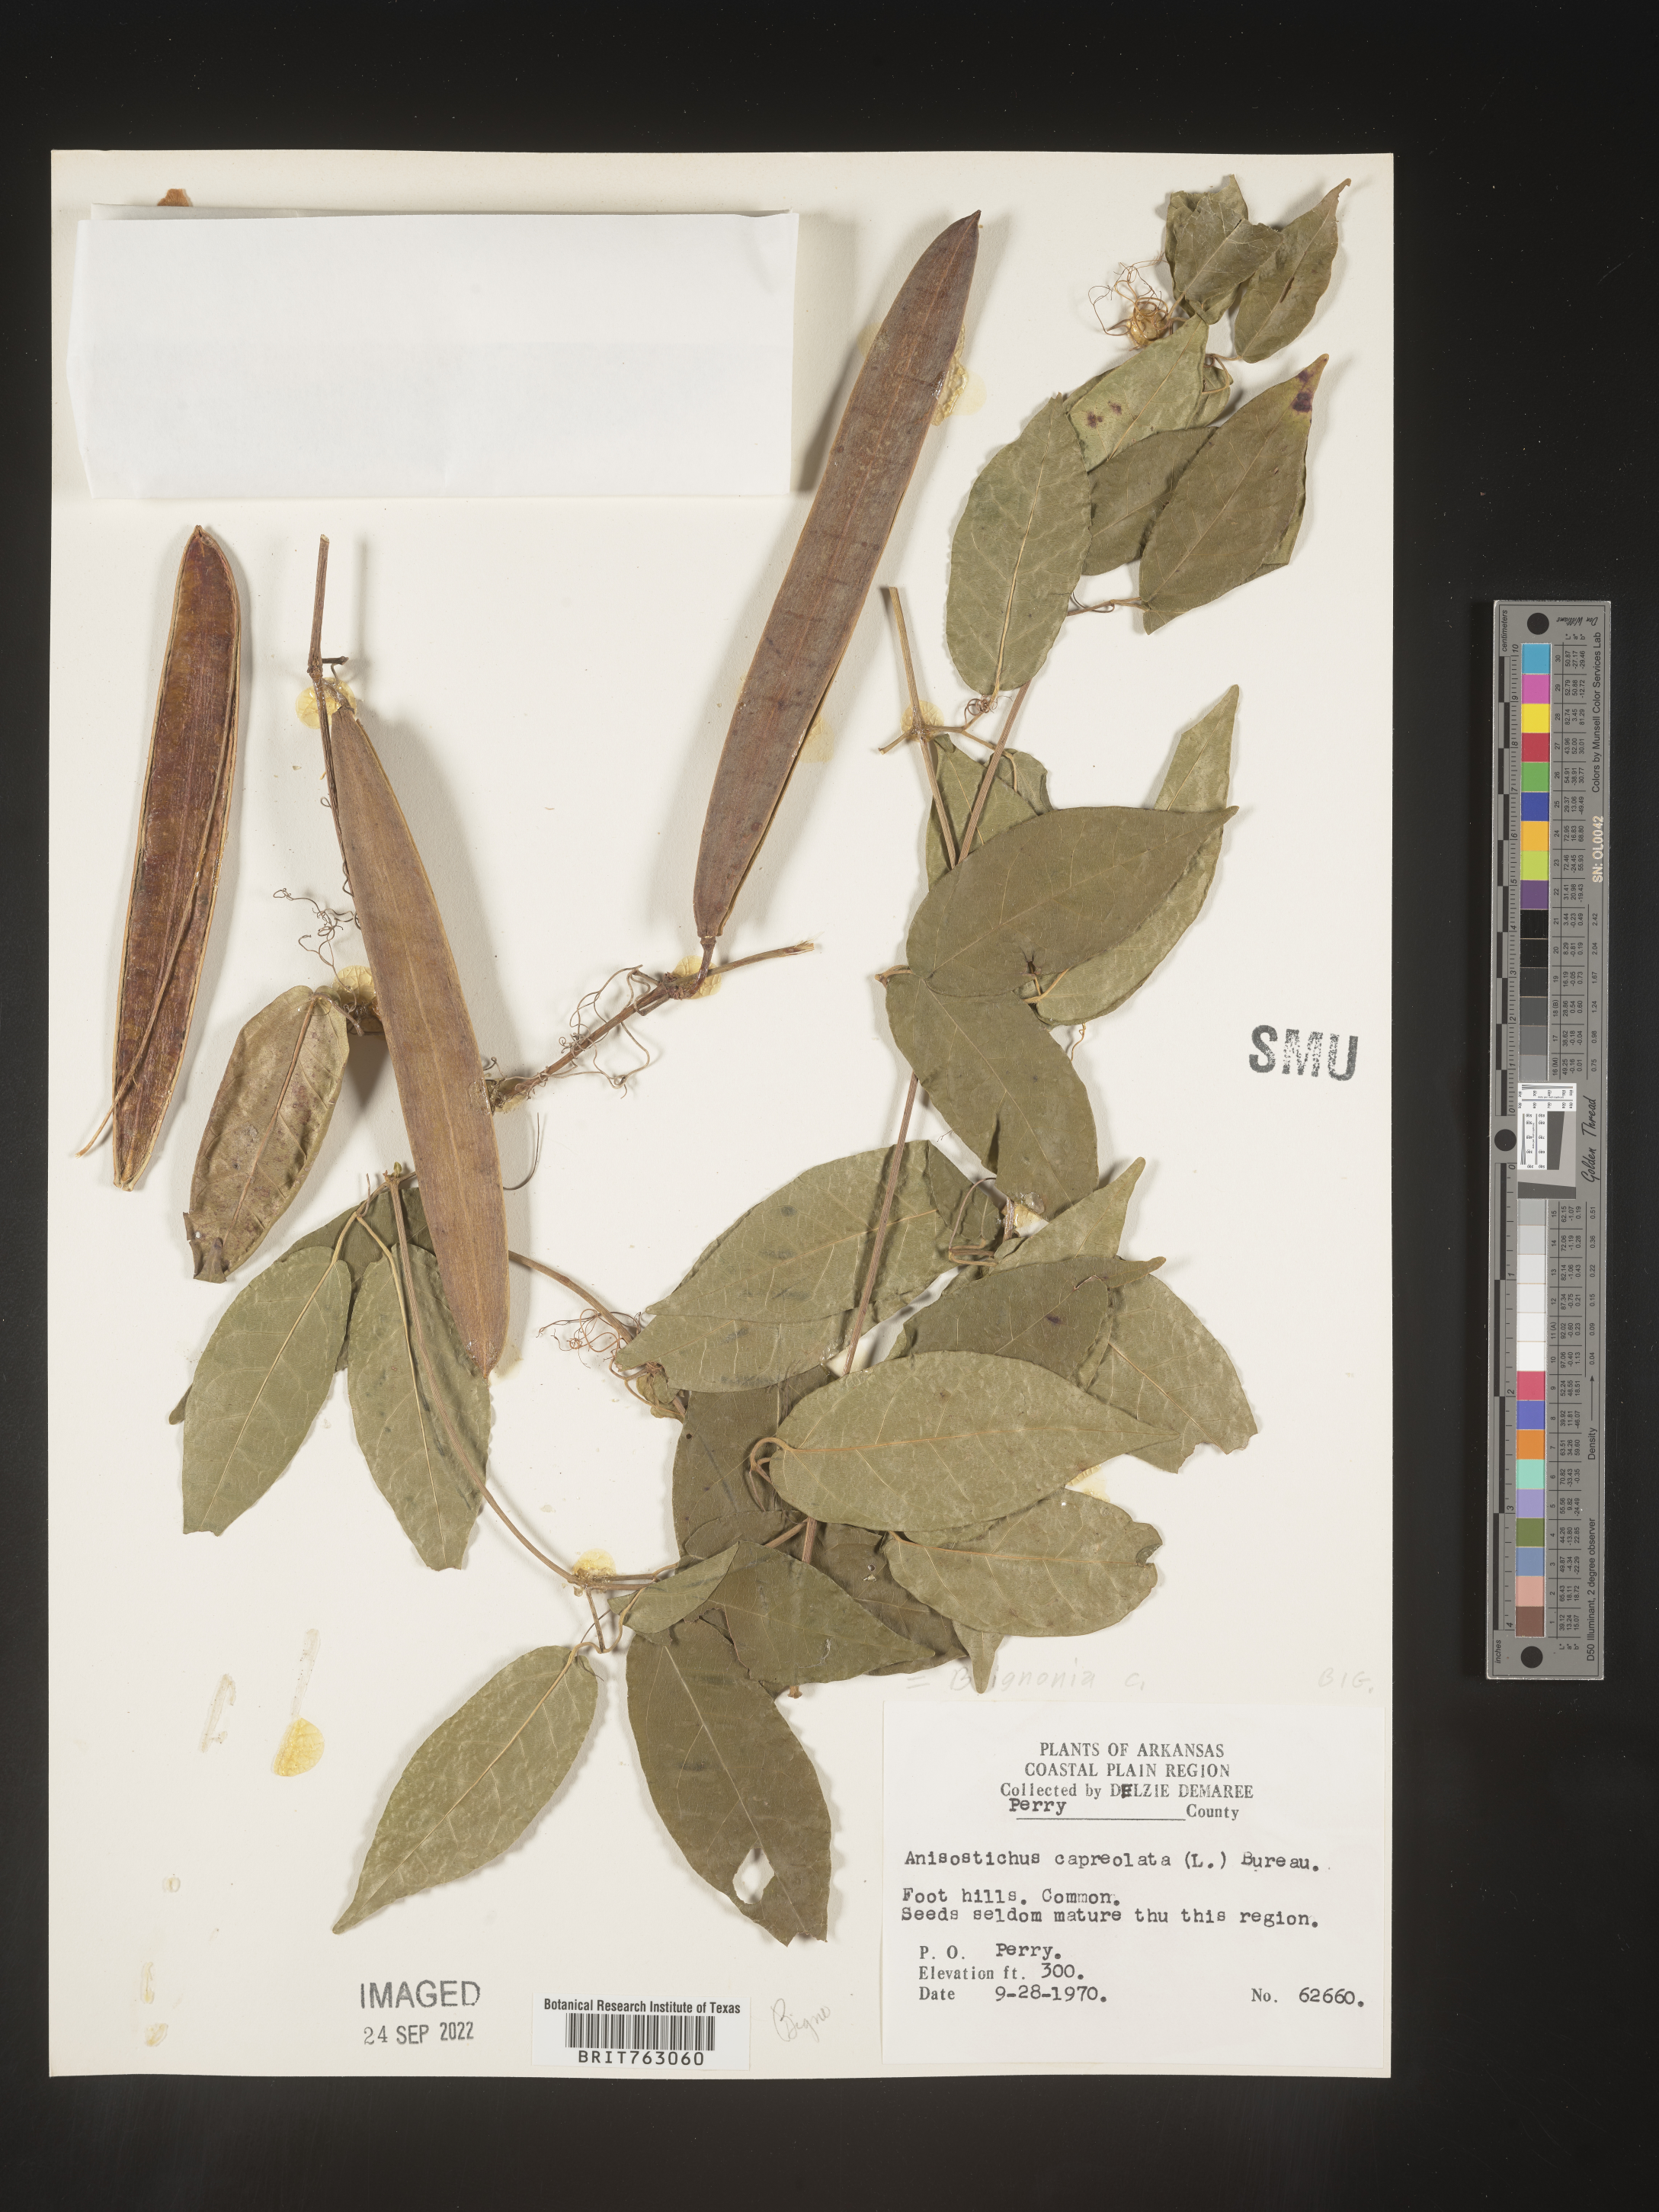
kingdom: Plantae
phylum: Tracheophyta
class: Magnoliopsida
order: Lamiales
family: Bignoniaceae
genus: Bignonia
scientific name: Bignonia capreolata
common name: Crossvine
